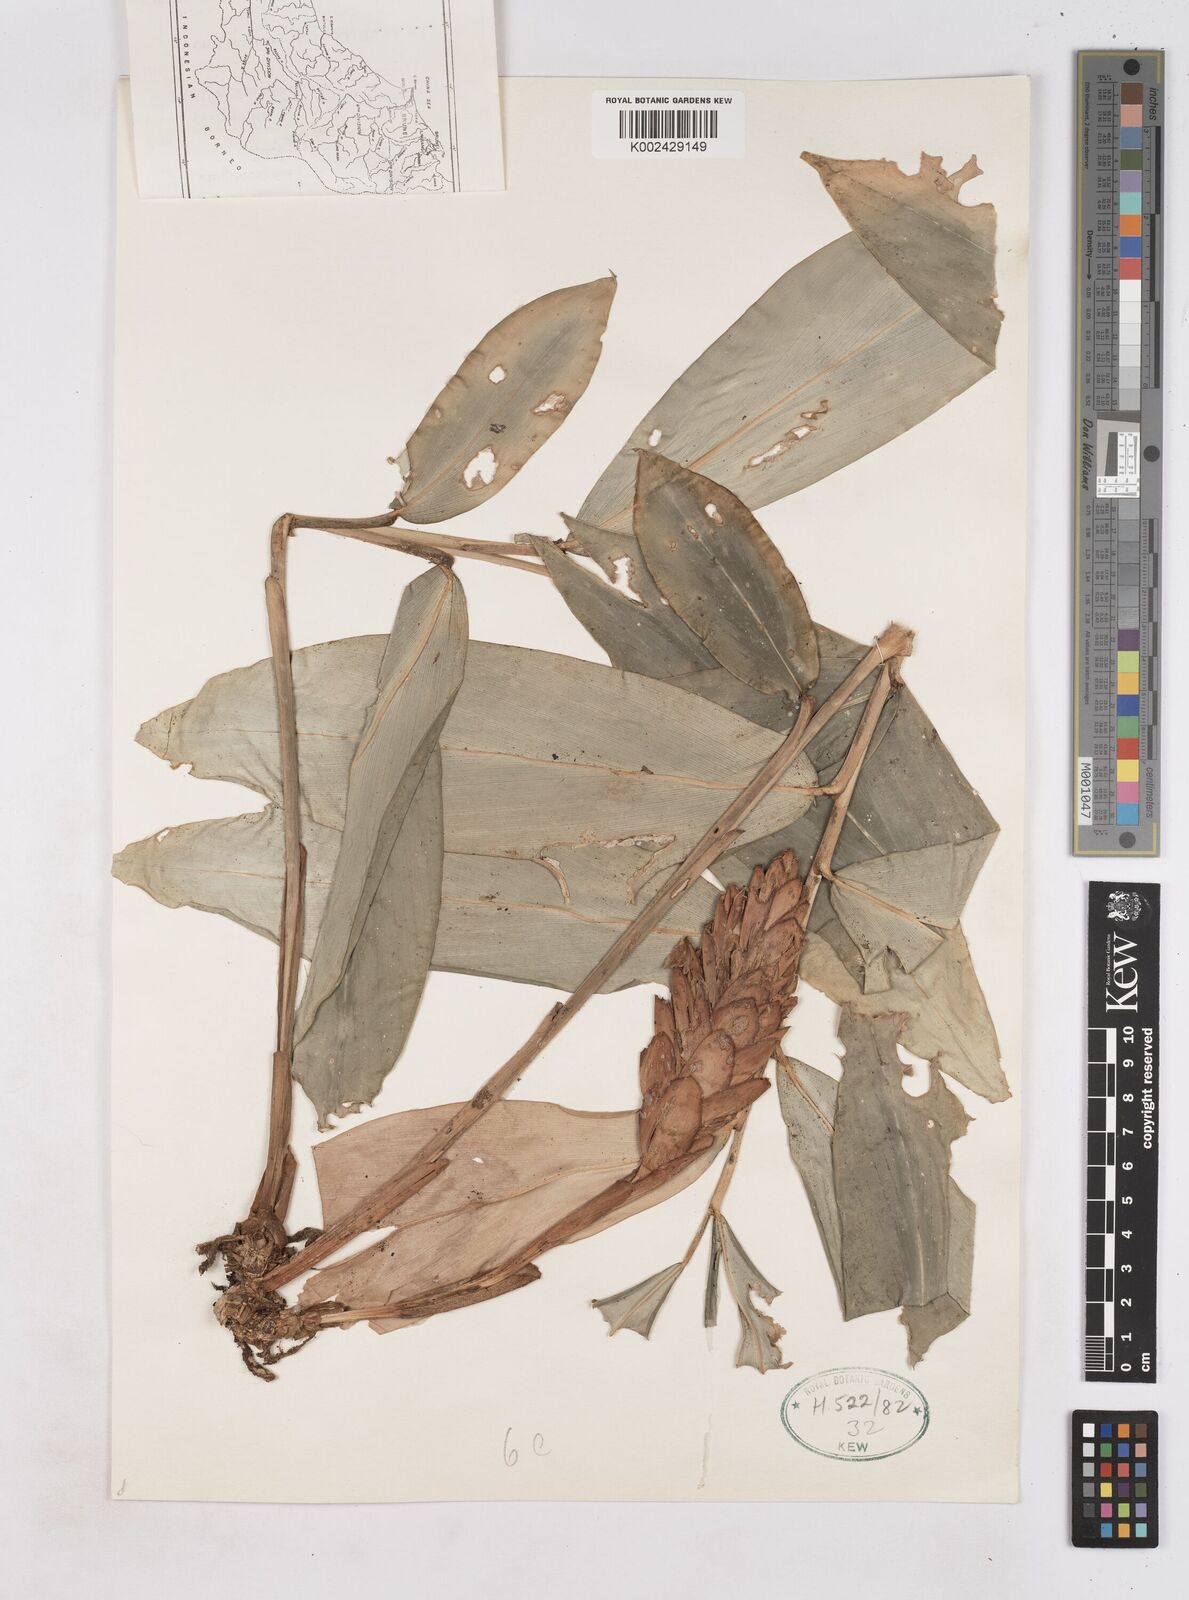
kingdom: Plantae
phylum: Tracheophyta
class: Liliopsida
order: Zingiberales
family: Zingiberaceae
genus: Zingiber
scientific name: Zingiber
